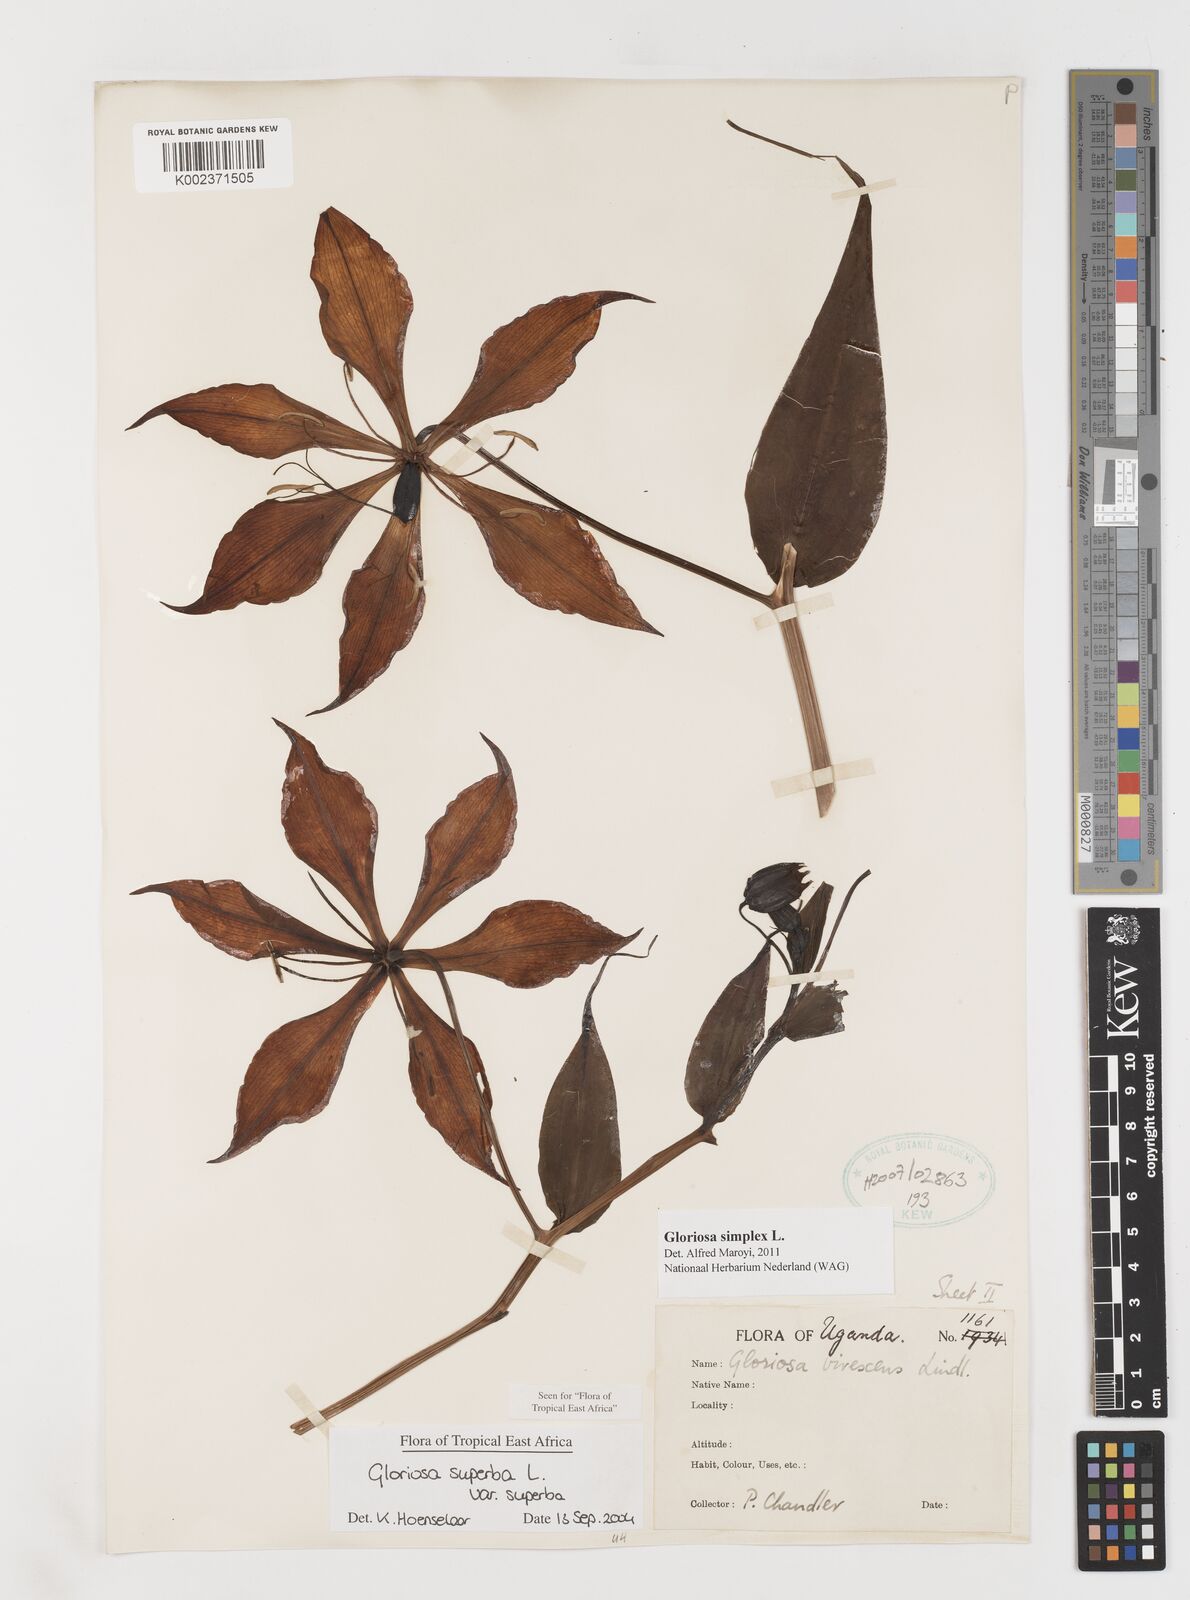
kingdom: Plantae
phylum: Tracheophyta
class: Liliopsida
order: Liliales
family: Colchicaceae
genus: Gloriosa
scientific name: Gloriosa simplex
